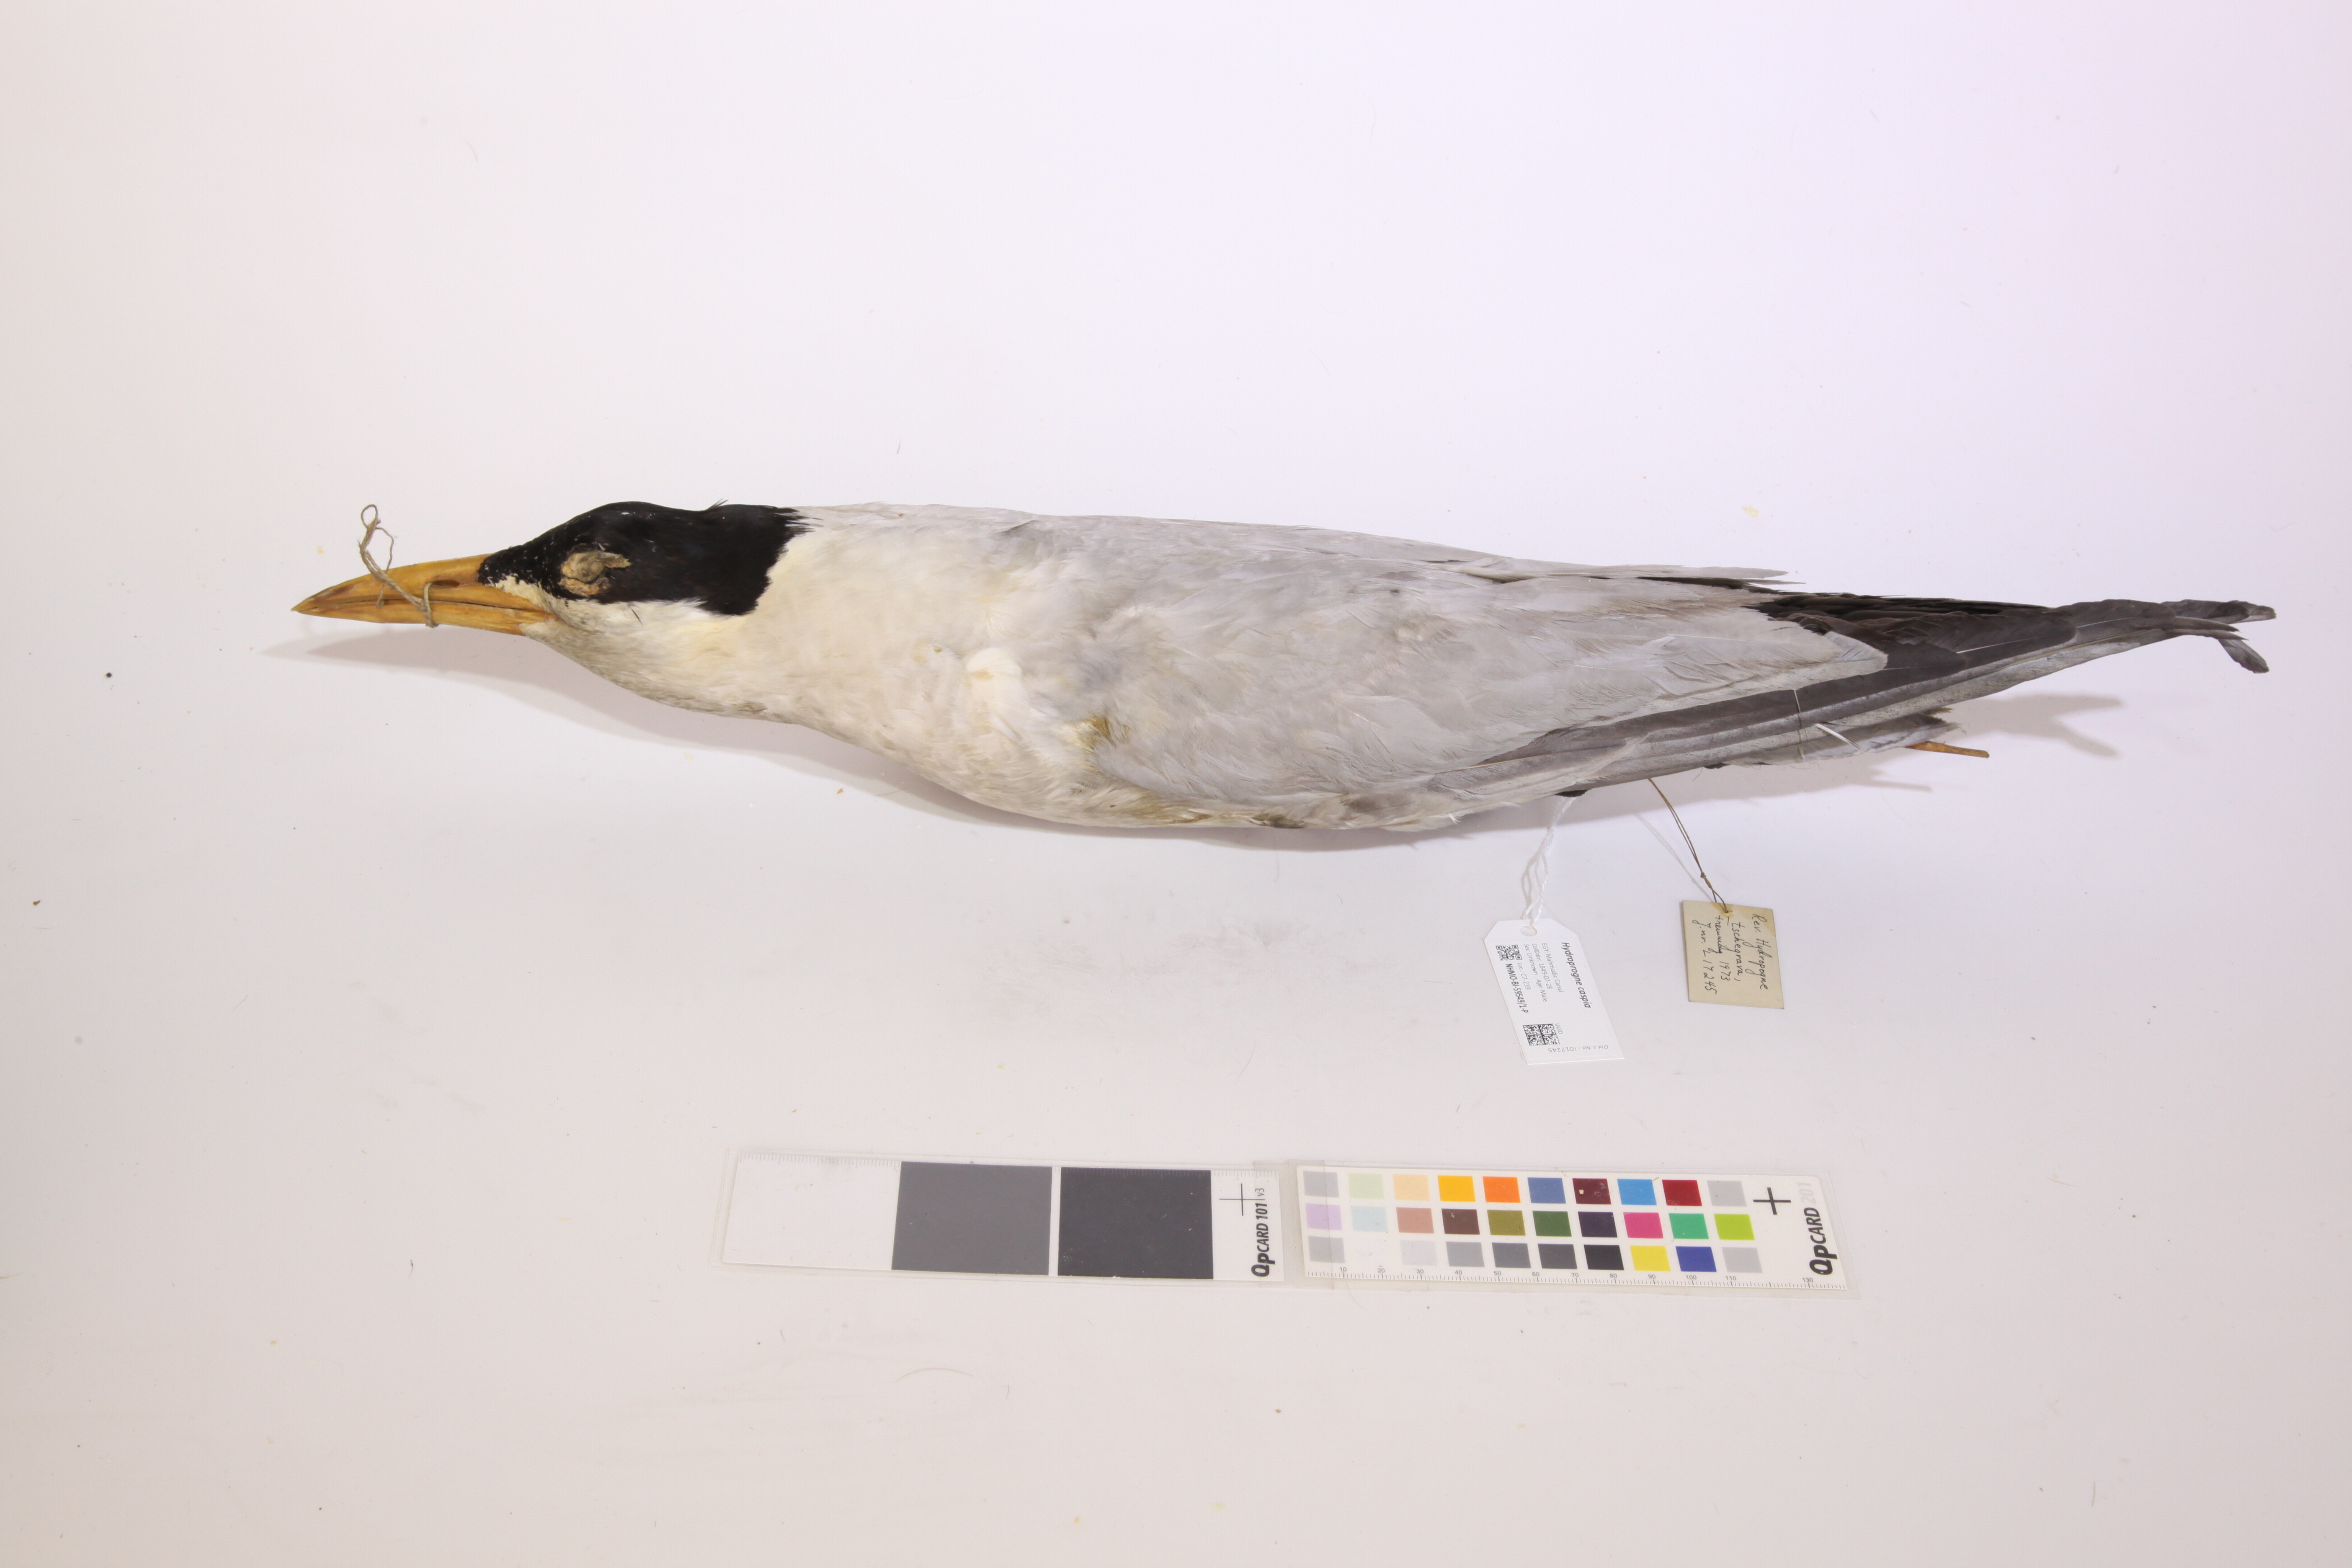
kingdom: Animalia
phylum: Chordata
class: Aves
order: Charadriiformes
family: Laridae
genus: Hydroprogne
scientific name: Hydroprogne caspia
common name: Caspian tern
